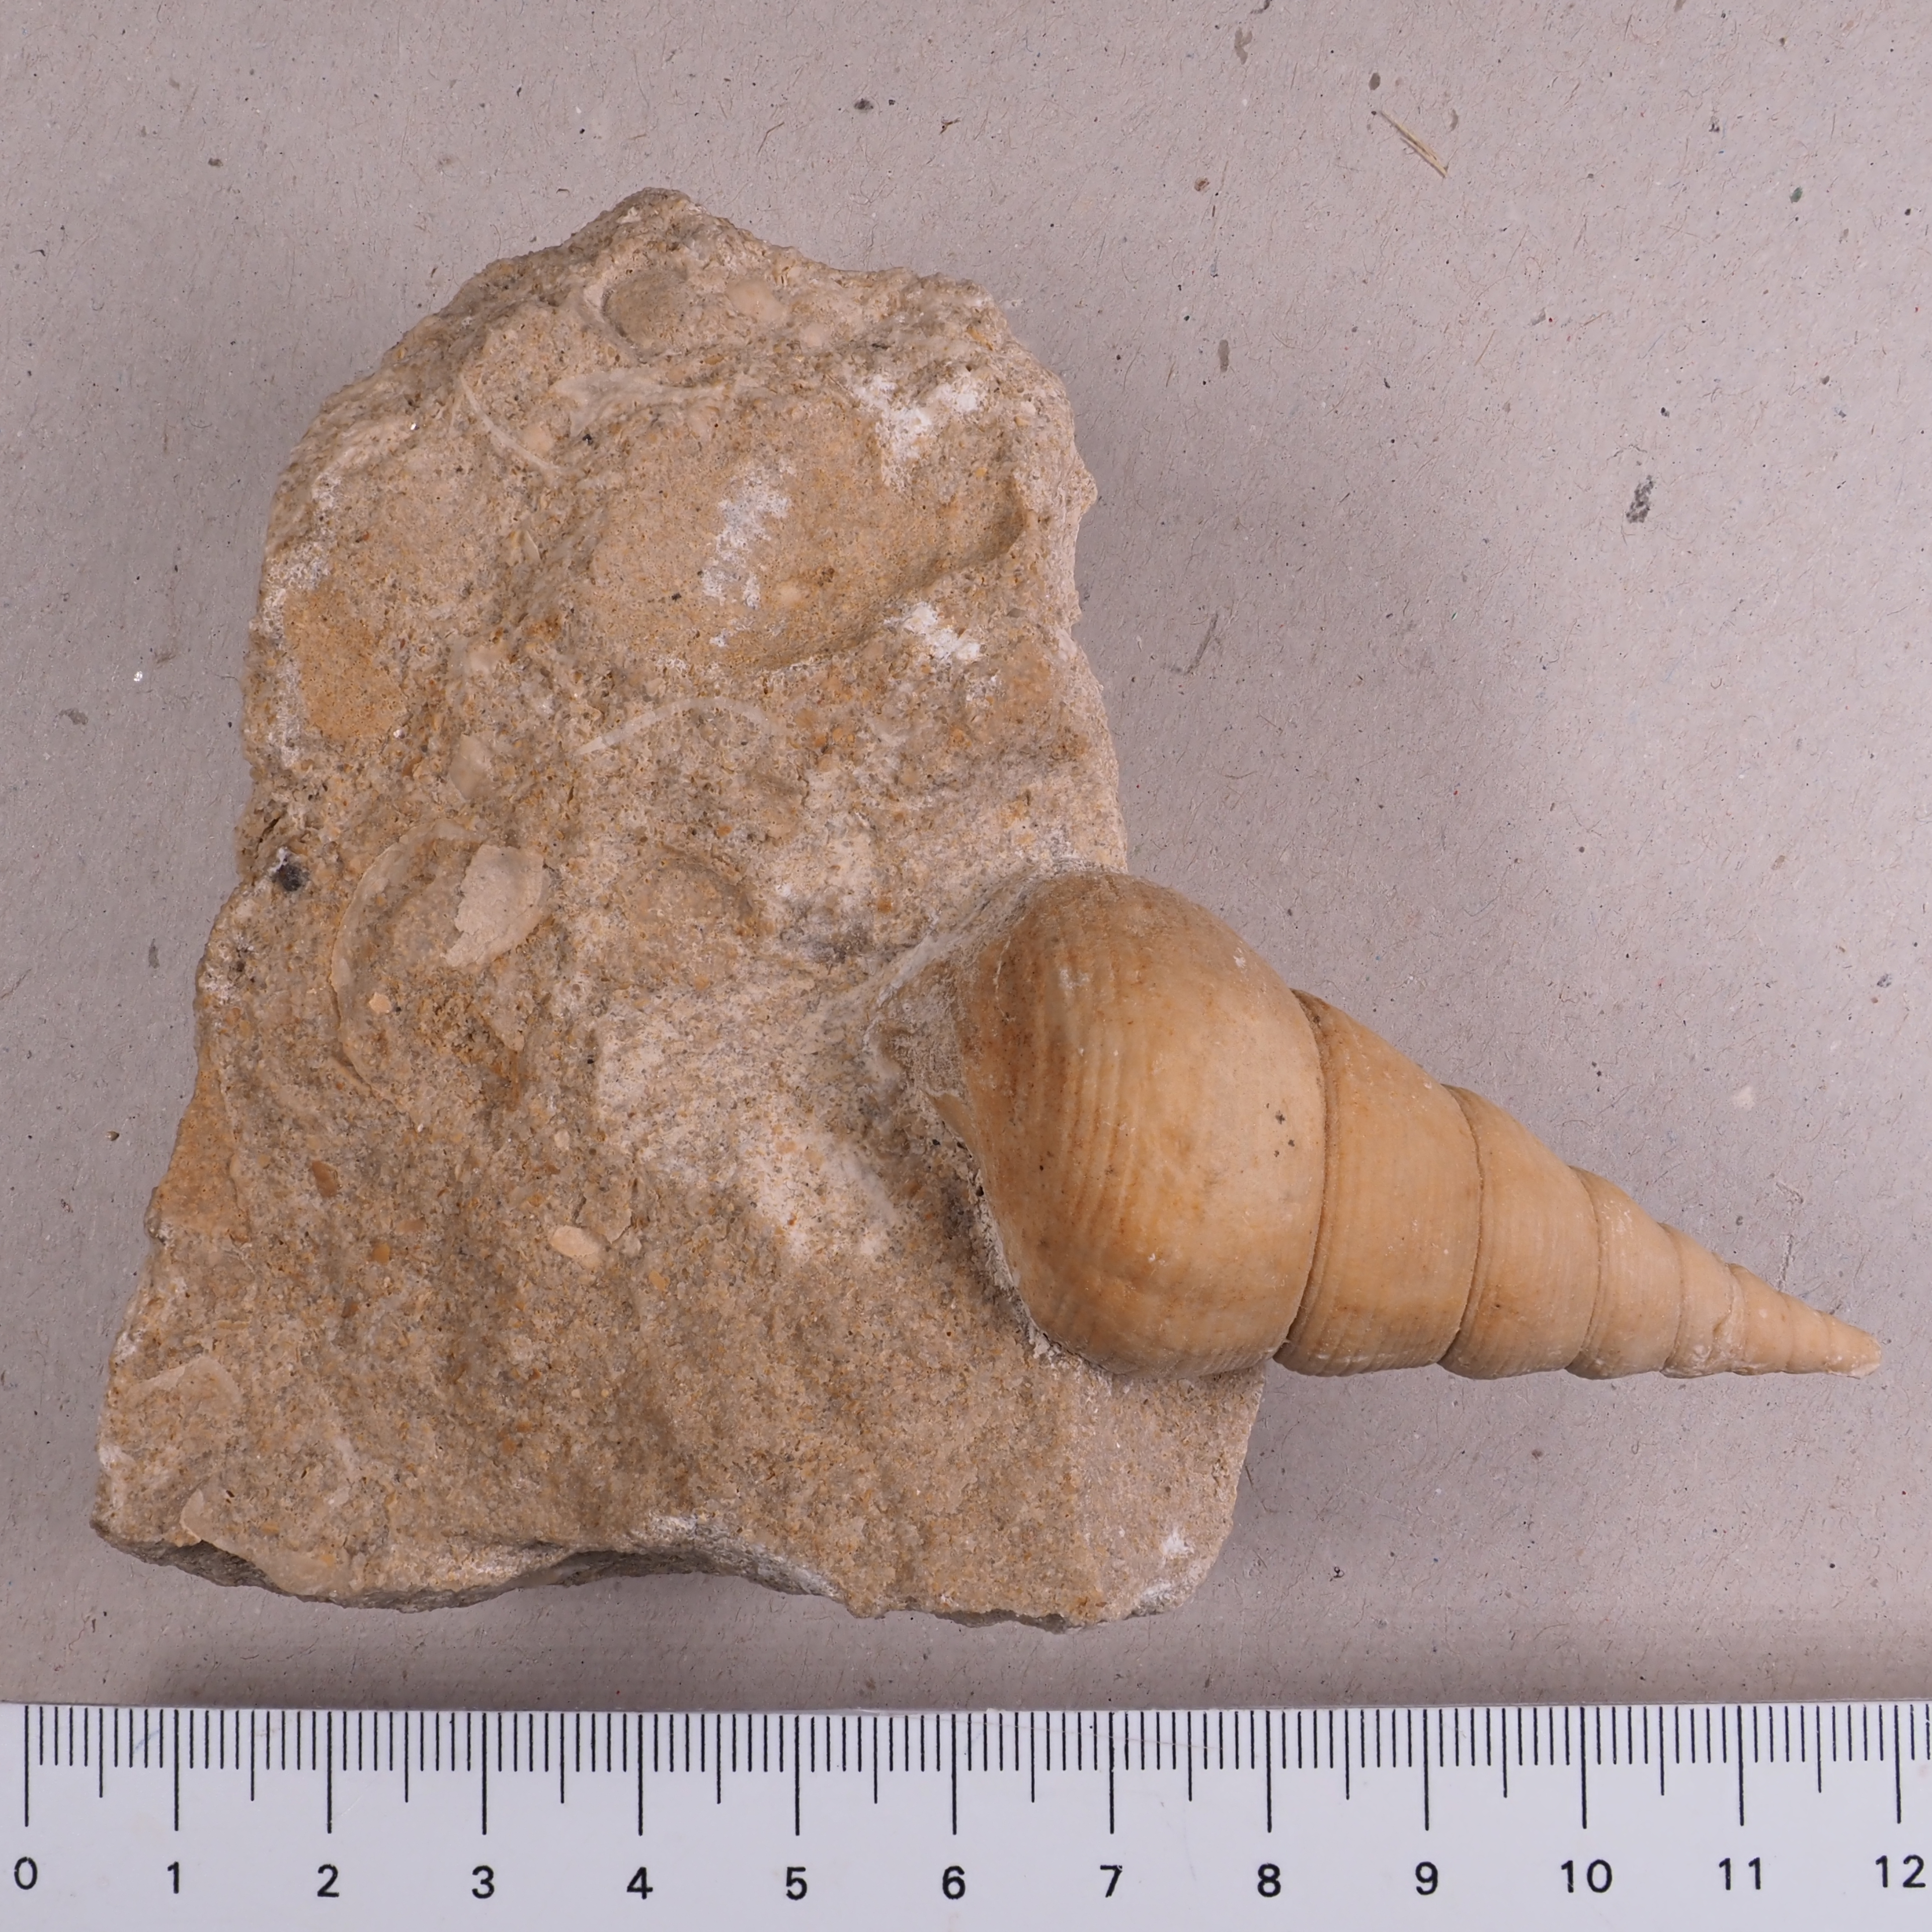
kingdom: Animalia
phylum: Mollusca
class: Gastropoda
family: Pseudomelaniidae
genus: Bourgetia
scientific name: Bourgetia Turritella deshayesea
